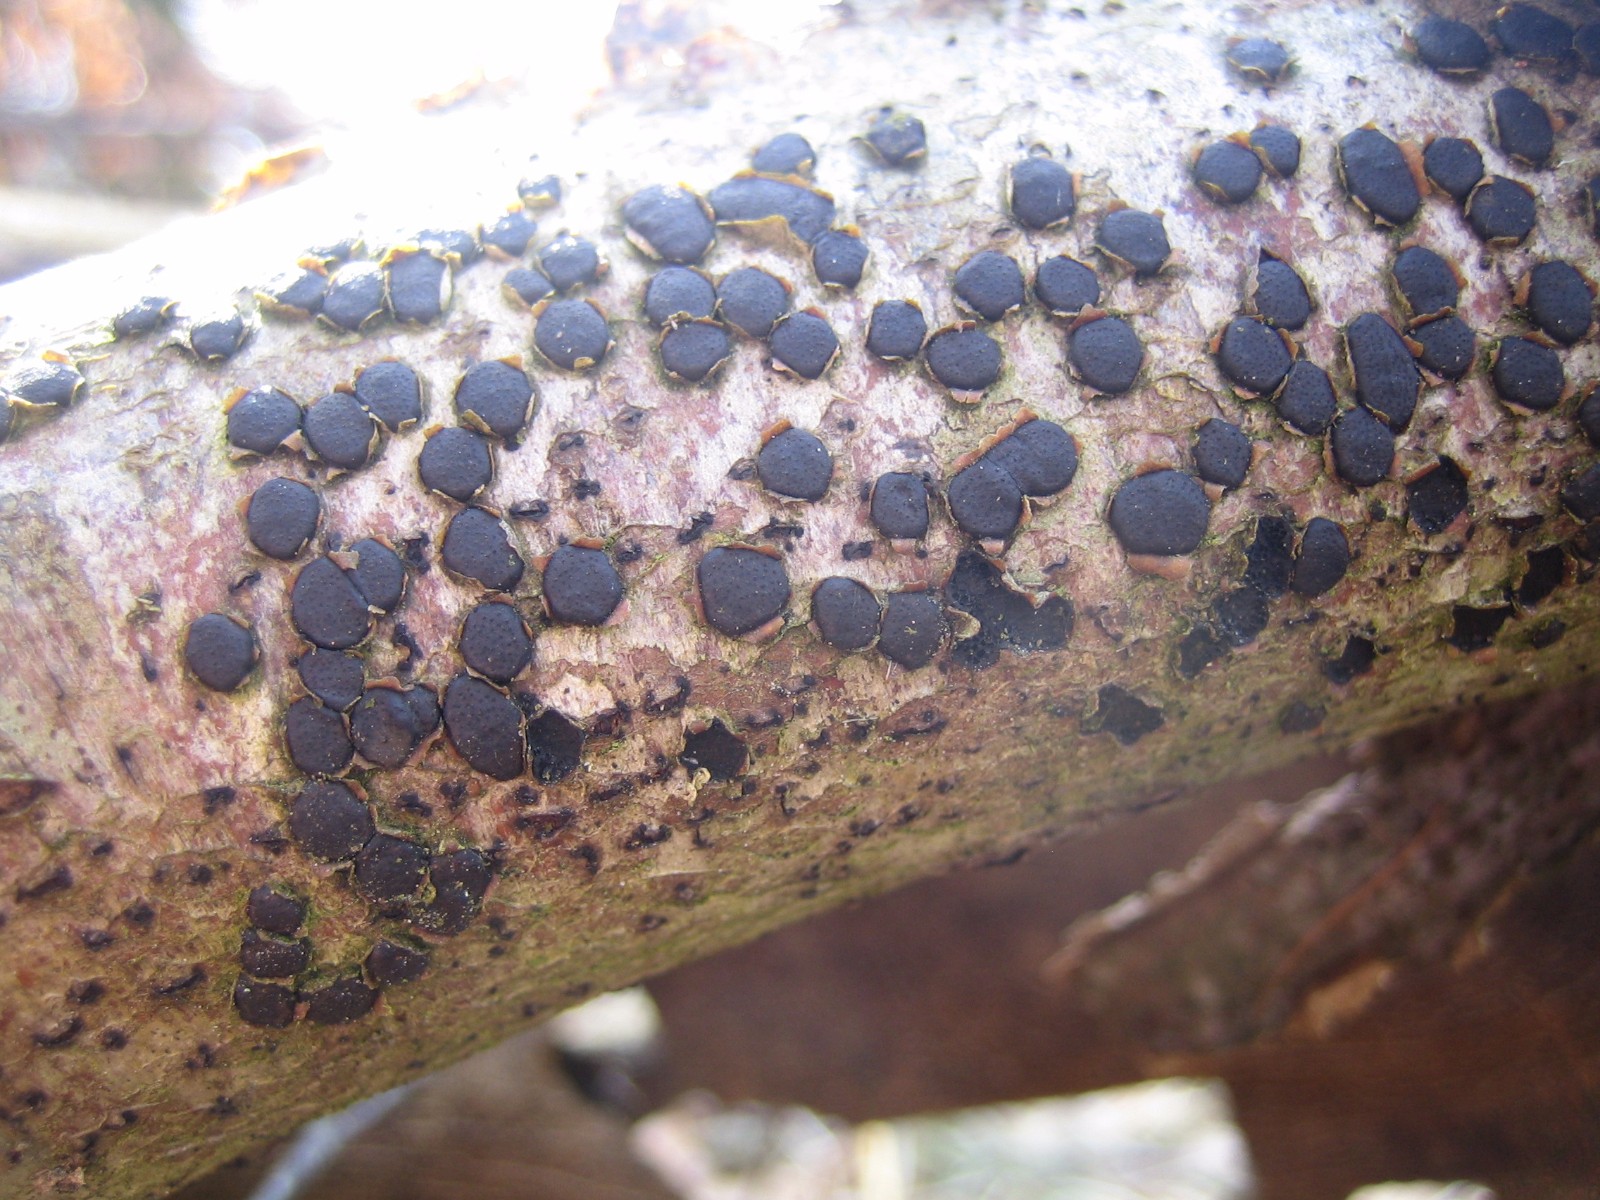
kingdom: Fungi
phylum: Ascomycota
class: Sordariomycetes
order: Xylariales
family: Diatrypaceae
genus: Diatrype
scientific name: Diatrype disciformis
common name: kant-kulskorpe
